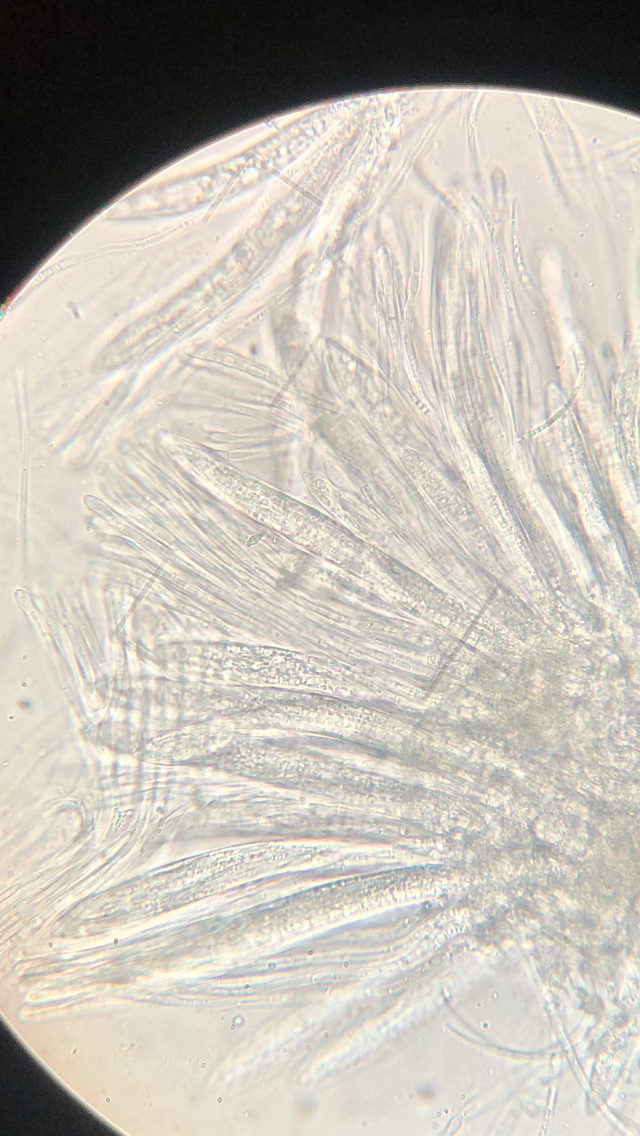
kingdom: Fungi
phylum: Ascomycota
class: Leotiomycetes
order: Rhytismatales
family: Rhytismataceae
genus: Lophodermium
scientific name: Lophodermium pinastri
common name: fyrre-fureplet
